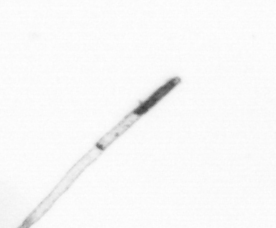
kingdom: Chromista
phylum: Ochrophyta
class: Bacillariophyceae
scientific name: Bacillariophyceae
